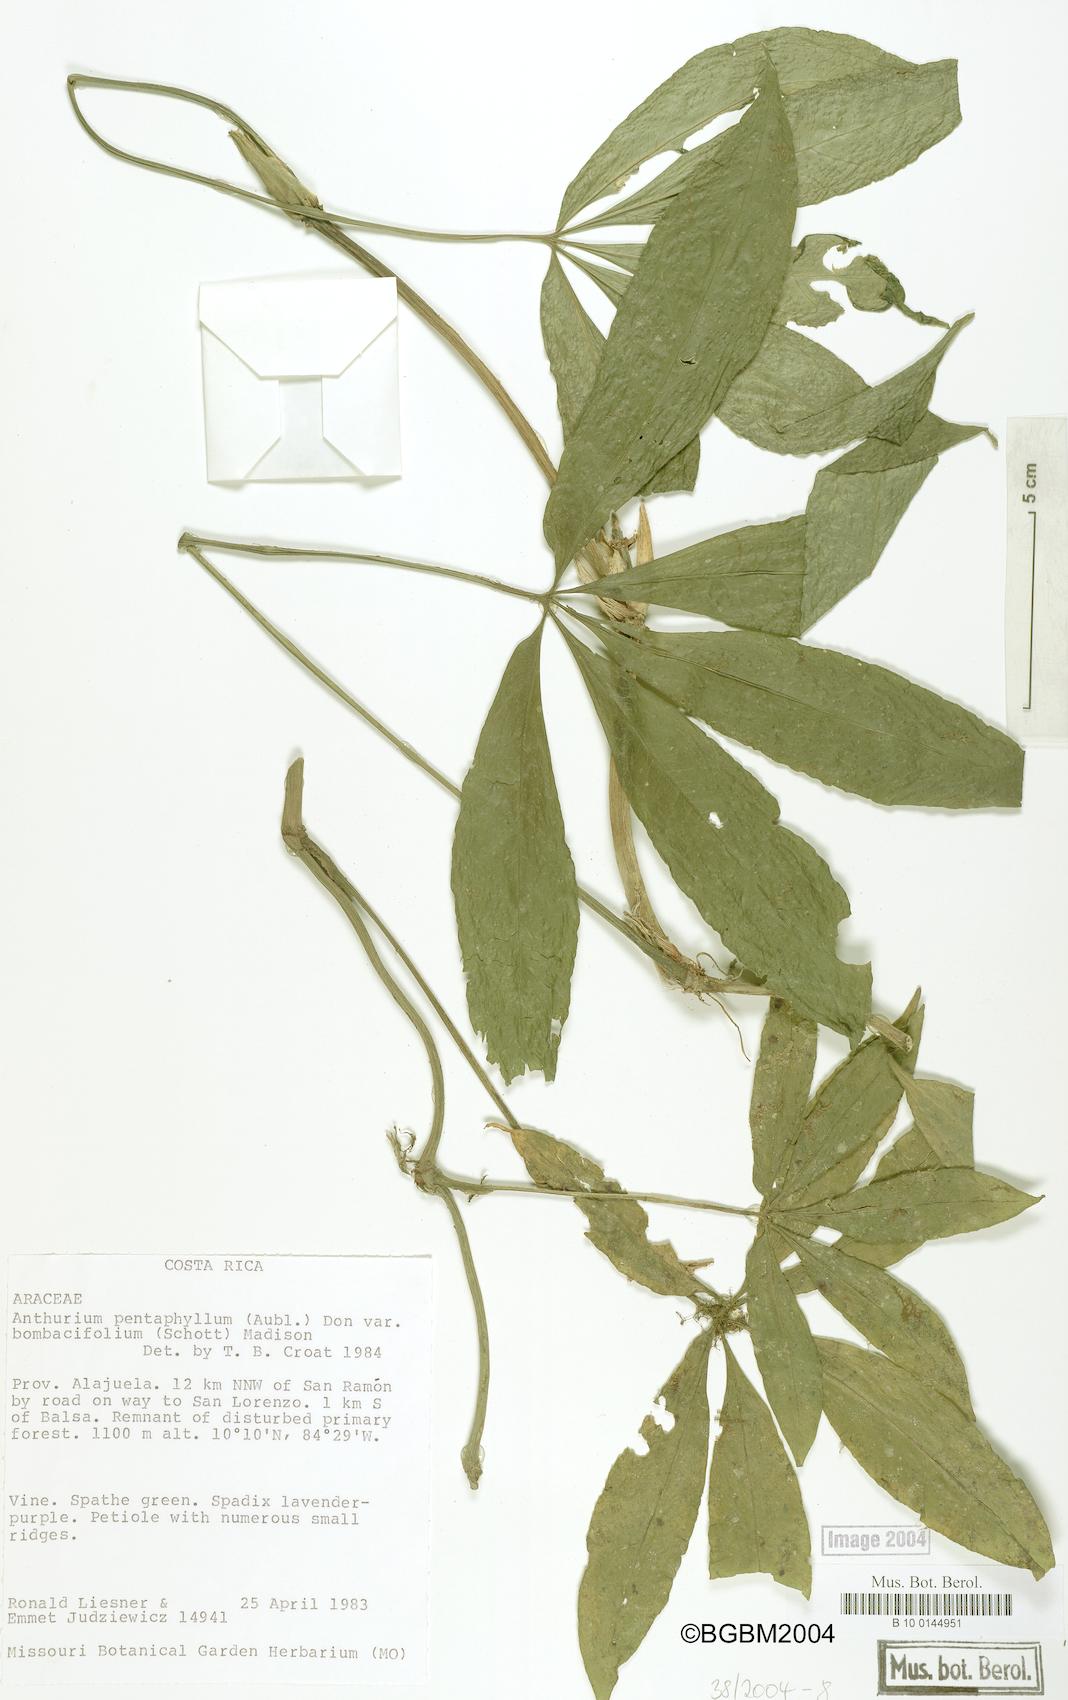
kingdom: Plantae
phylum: Tracheophyta
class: Liliopsida
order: Alismatales
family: Araceae
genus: Anthurium
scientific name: Anthurium pentaphyllum
